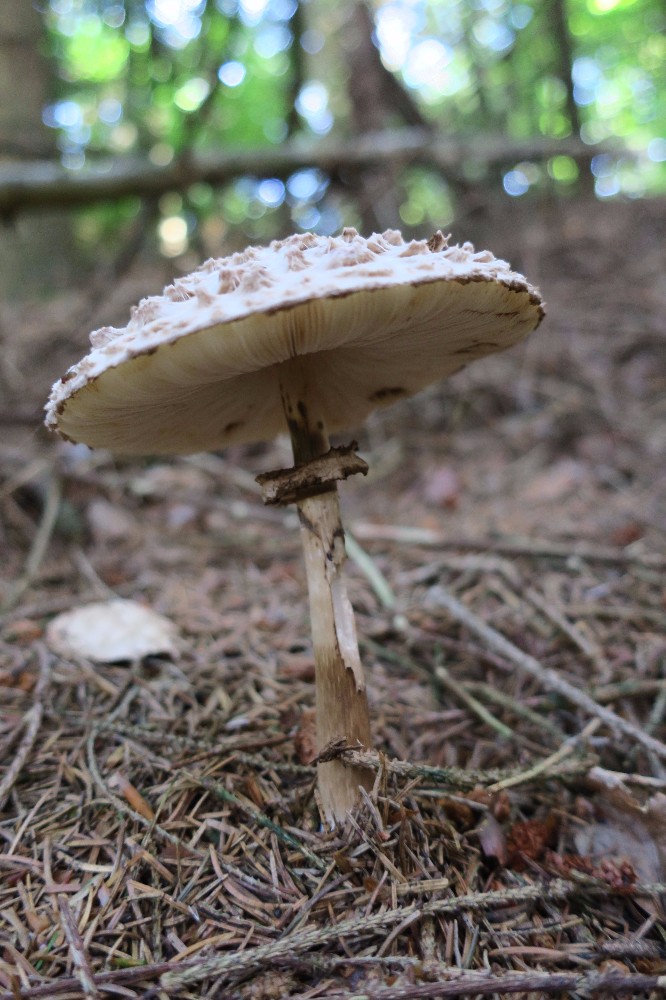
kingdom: Fungi
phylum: Basidiomycota
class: Agaricomycetes
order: Agaricales
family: Agaricaceae
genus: Chlorophyllum
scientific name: Chlorophyllum olivieri
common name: almindelig rabarberhat
